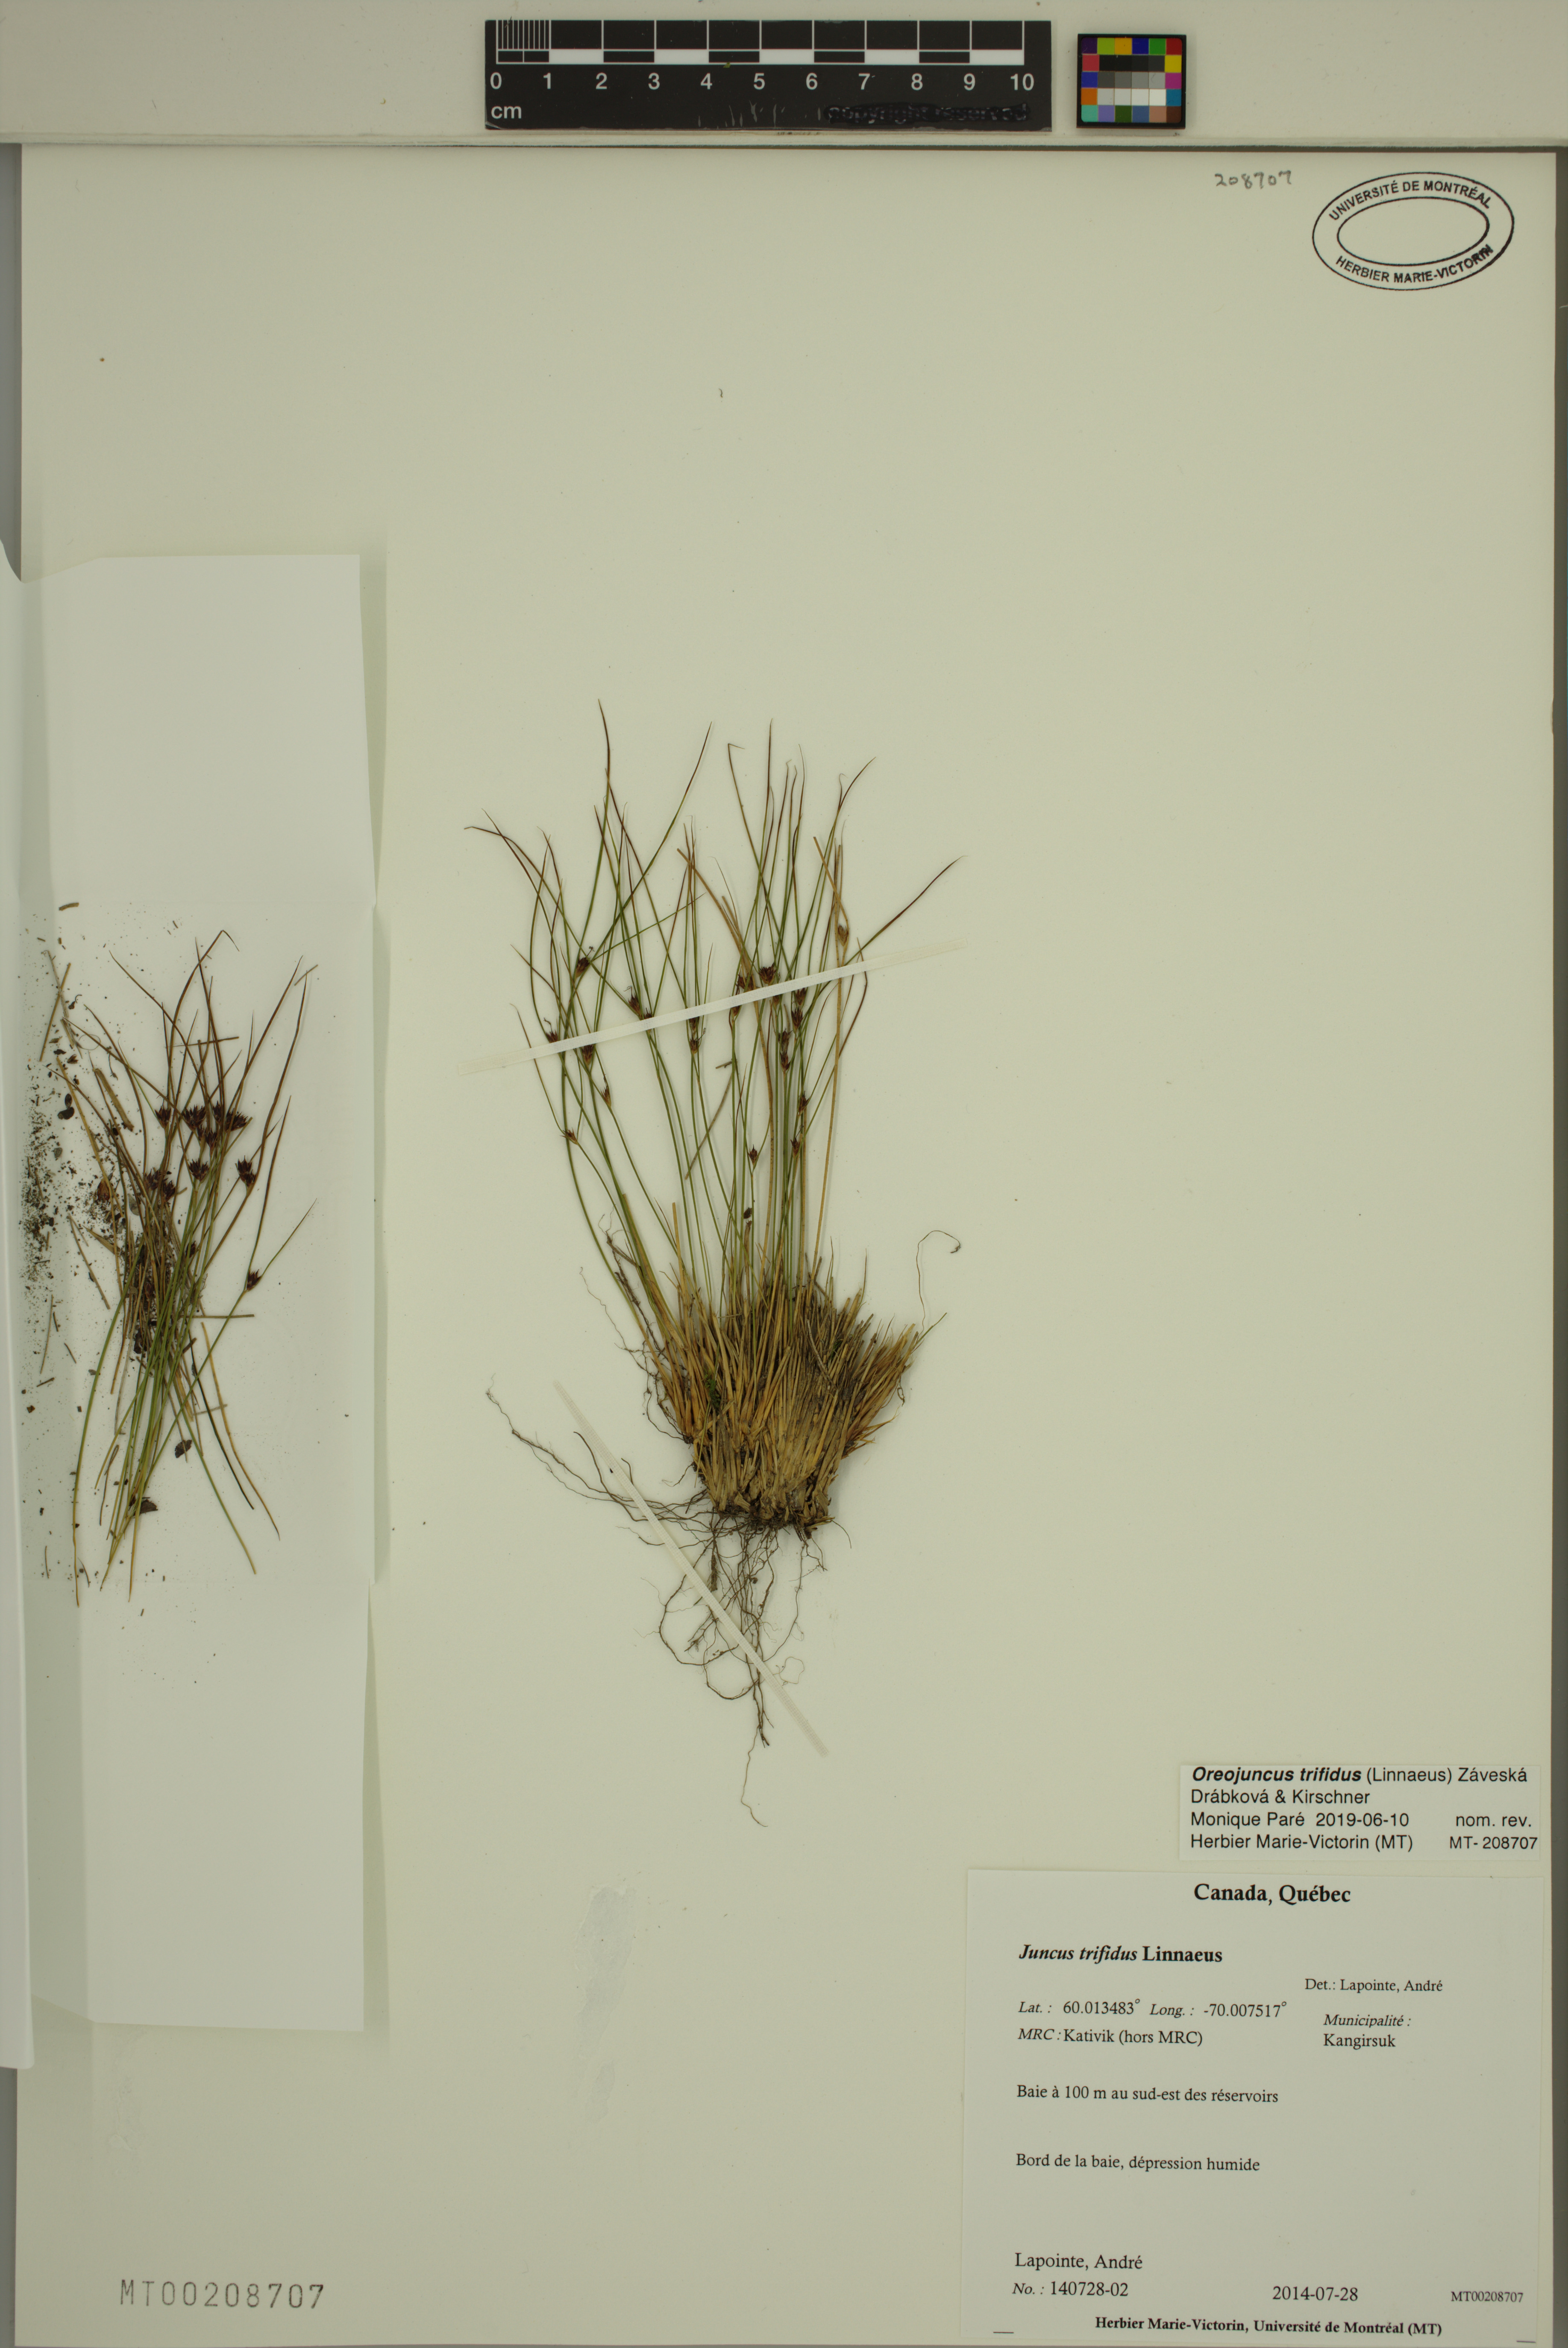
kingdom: Plantae
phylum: Tracheophyta
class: Liliopsida
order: Poales
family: Juncaceae
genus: Oreojuncus
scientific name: Oreojuncus trifidus
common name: Highland rush
